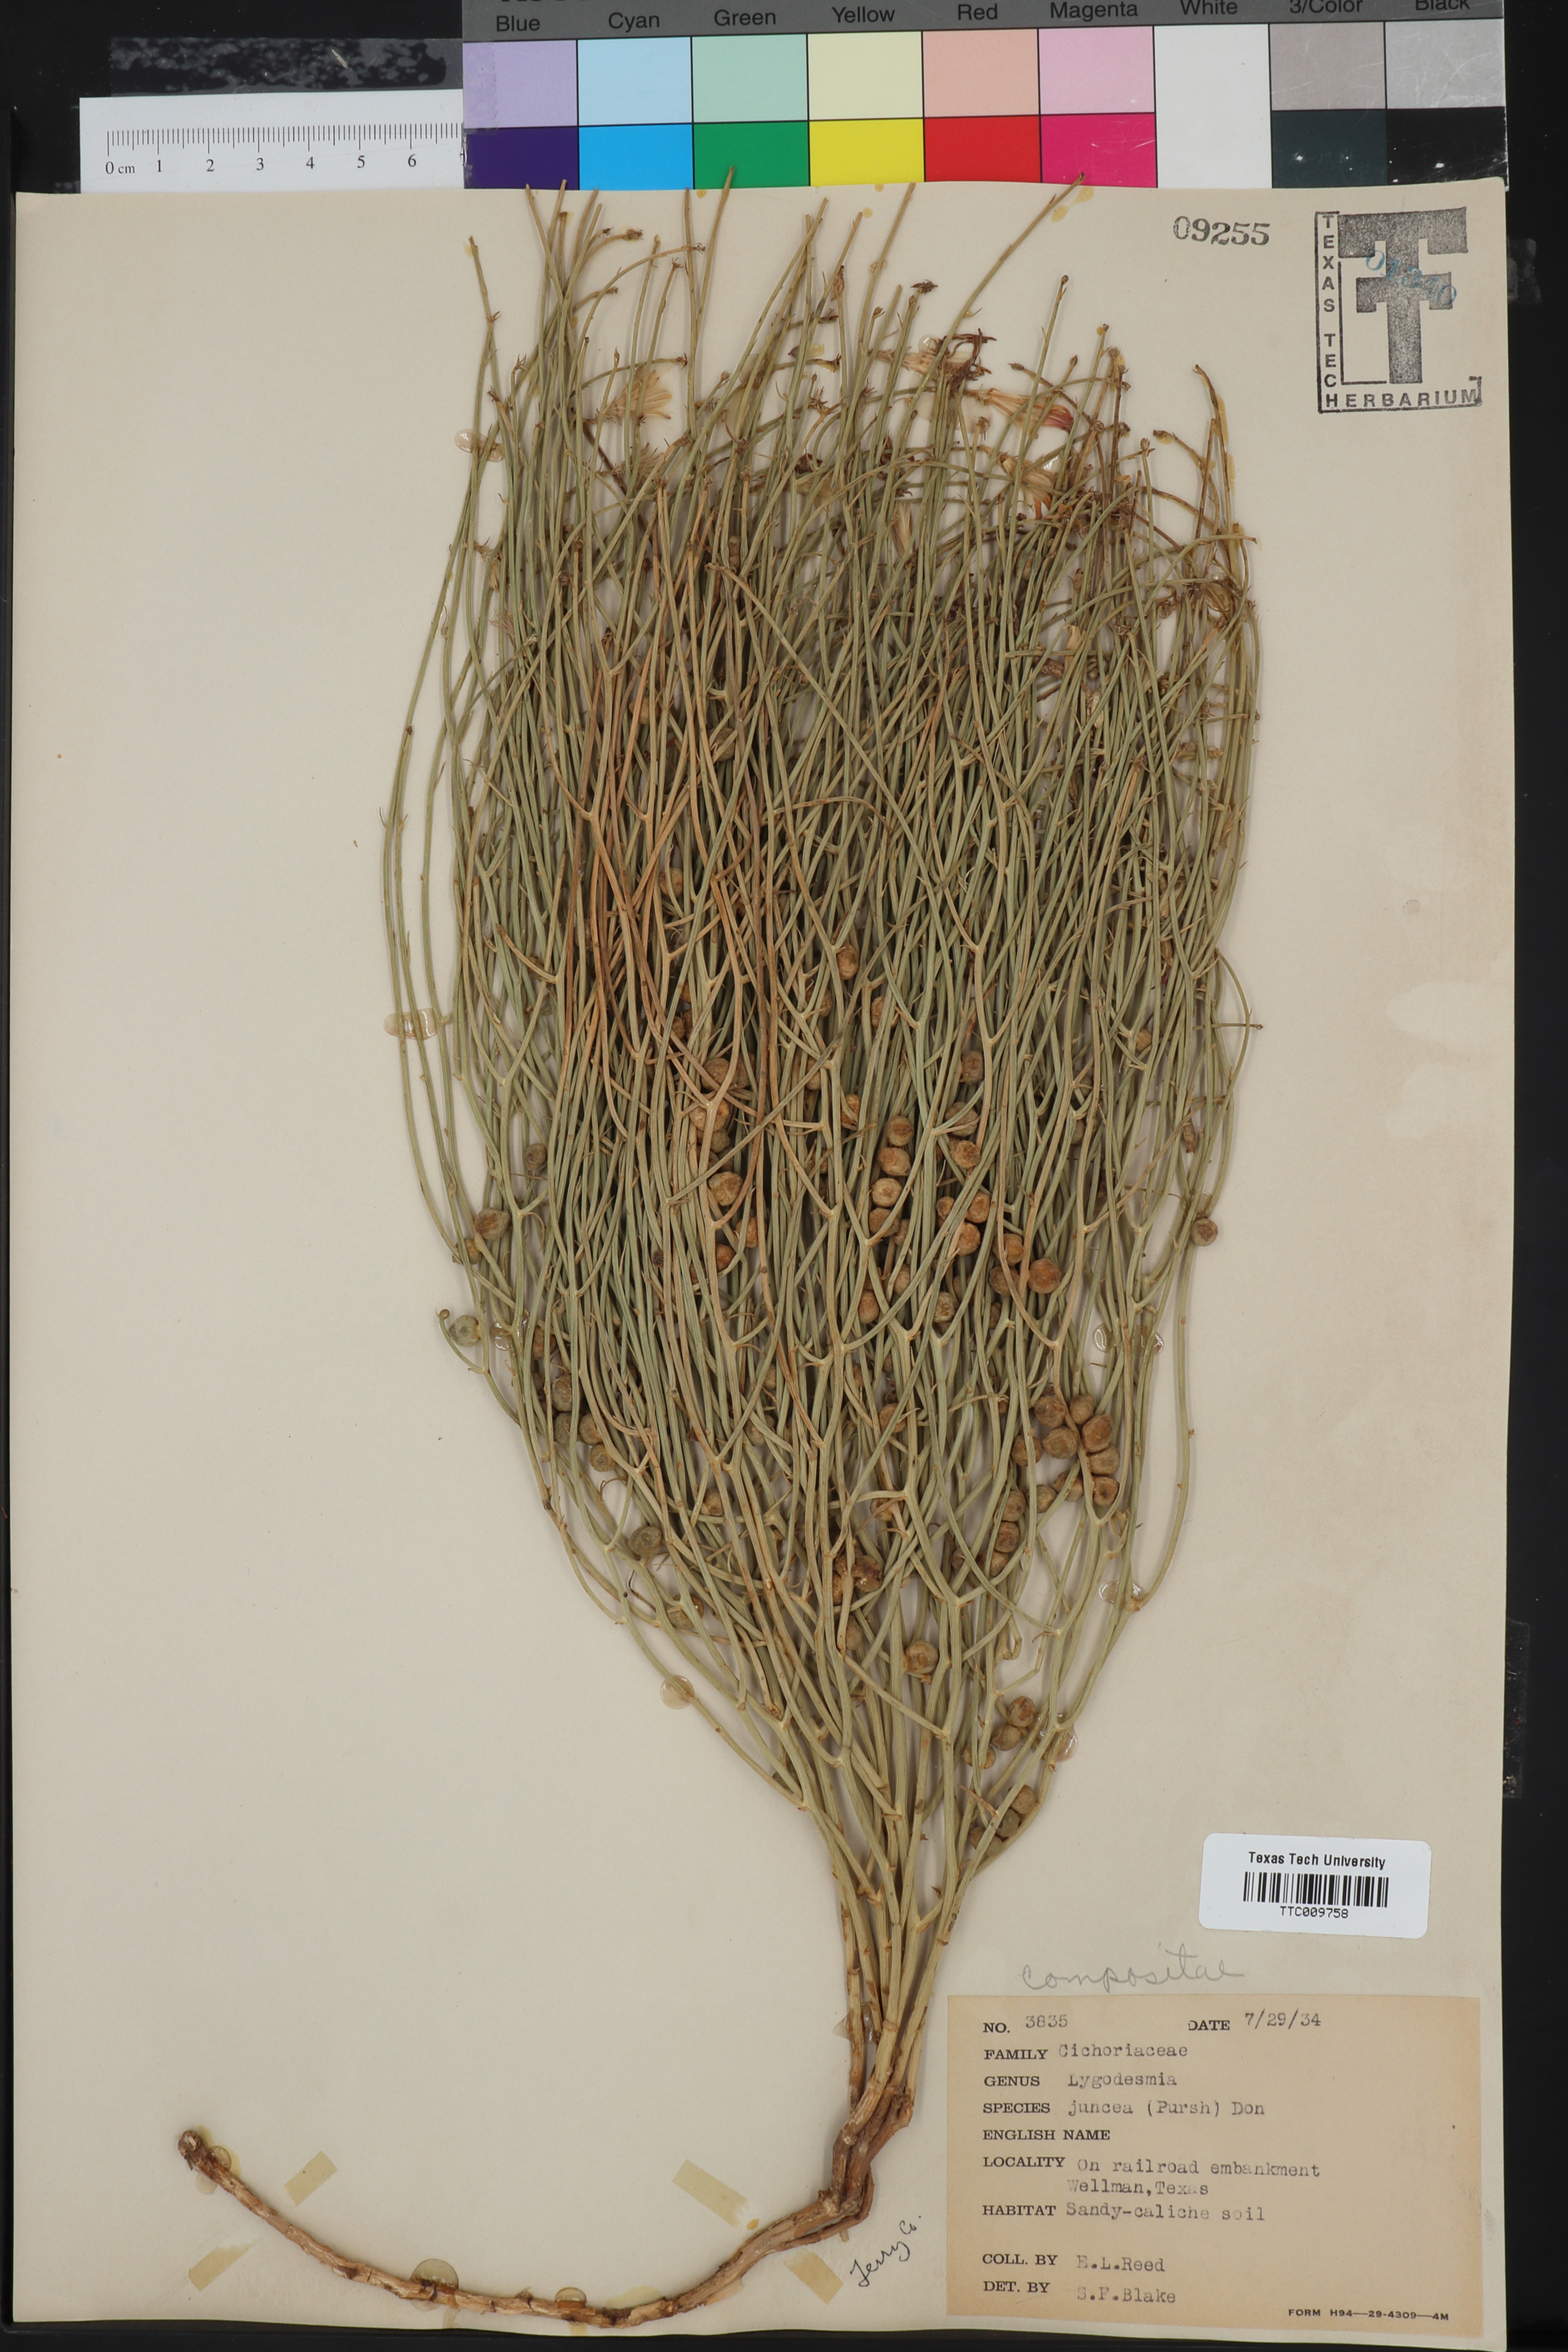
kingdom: Plantae
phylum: Tracheophyta
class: Magnoliopsida
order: Asterales
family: Asteraceae
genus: Lygodesmia
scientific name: Lygodesmia juncea
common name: Common skeletonweed
